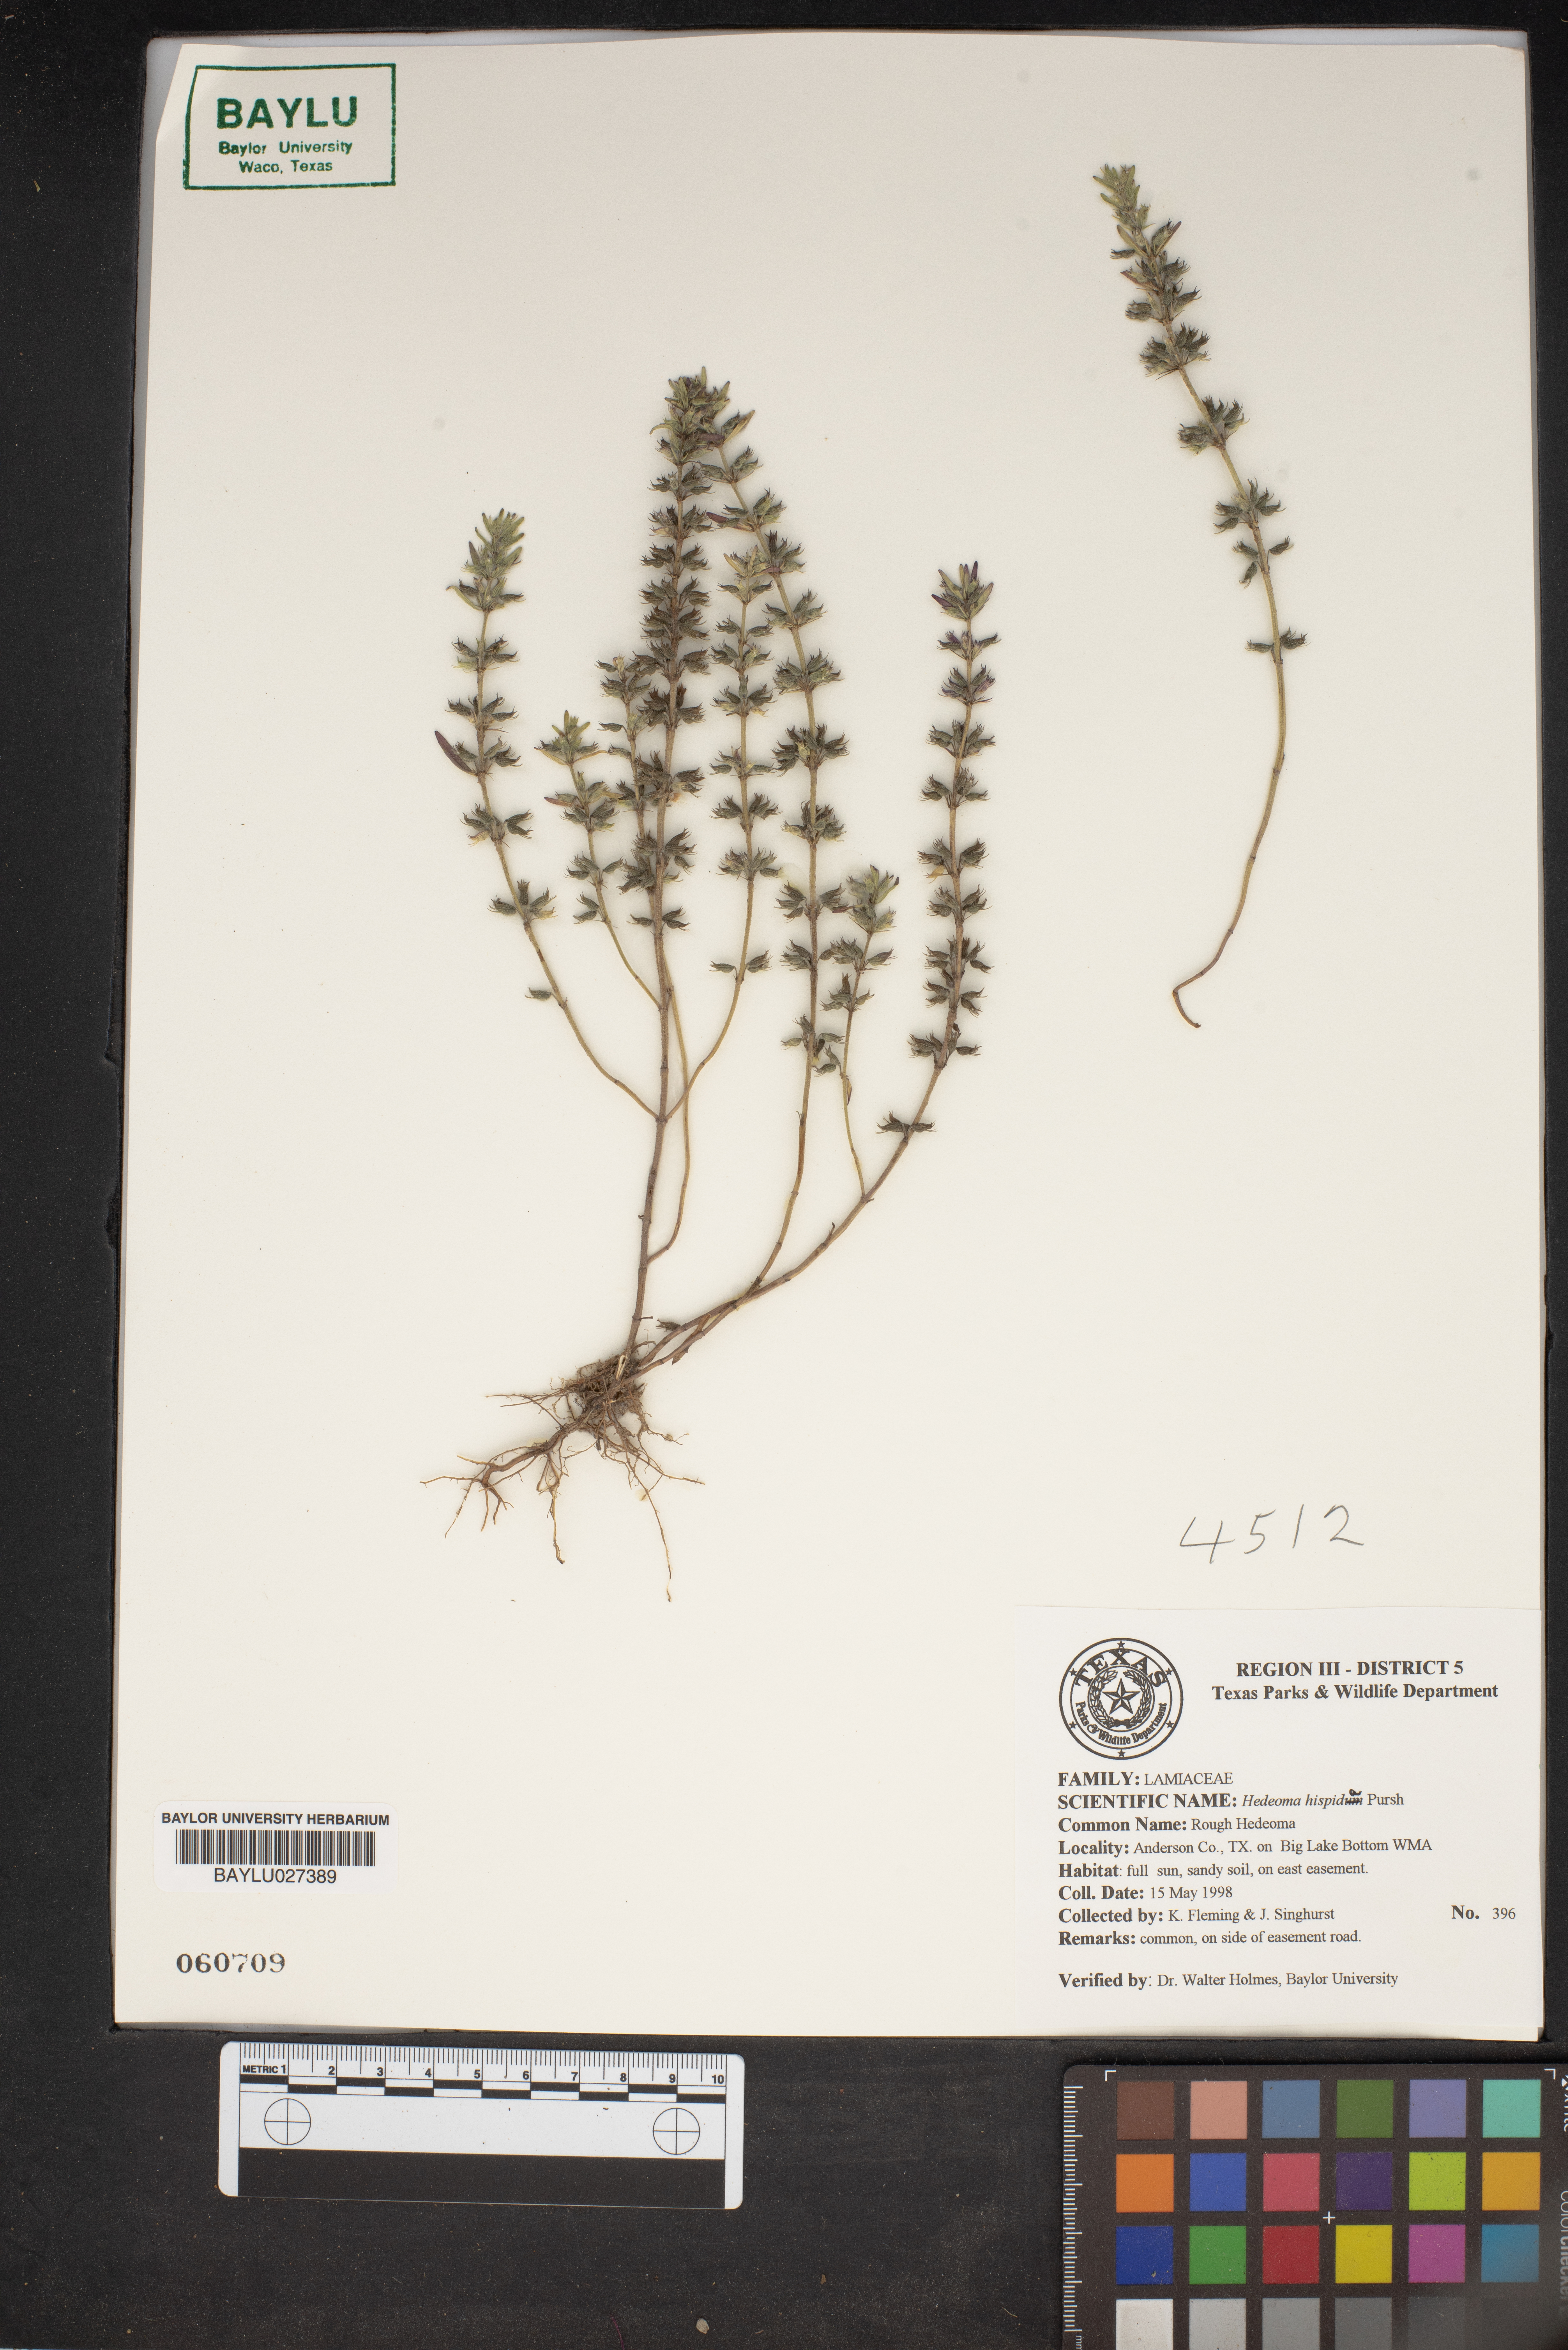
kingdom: Plantae
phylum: Tracheophyta
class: Magnoliopsida
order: Lamiales
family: Lamiaceae
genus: Hedeoma
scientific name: Hedeoma hispida
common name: Mock pennyroyal
